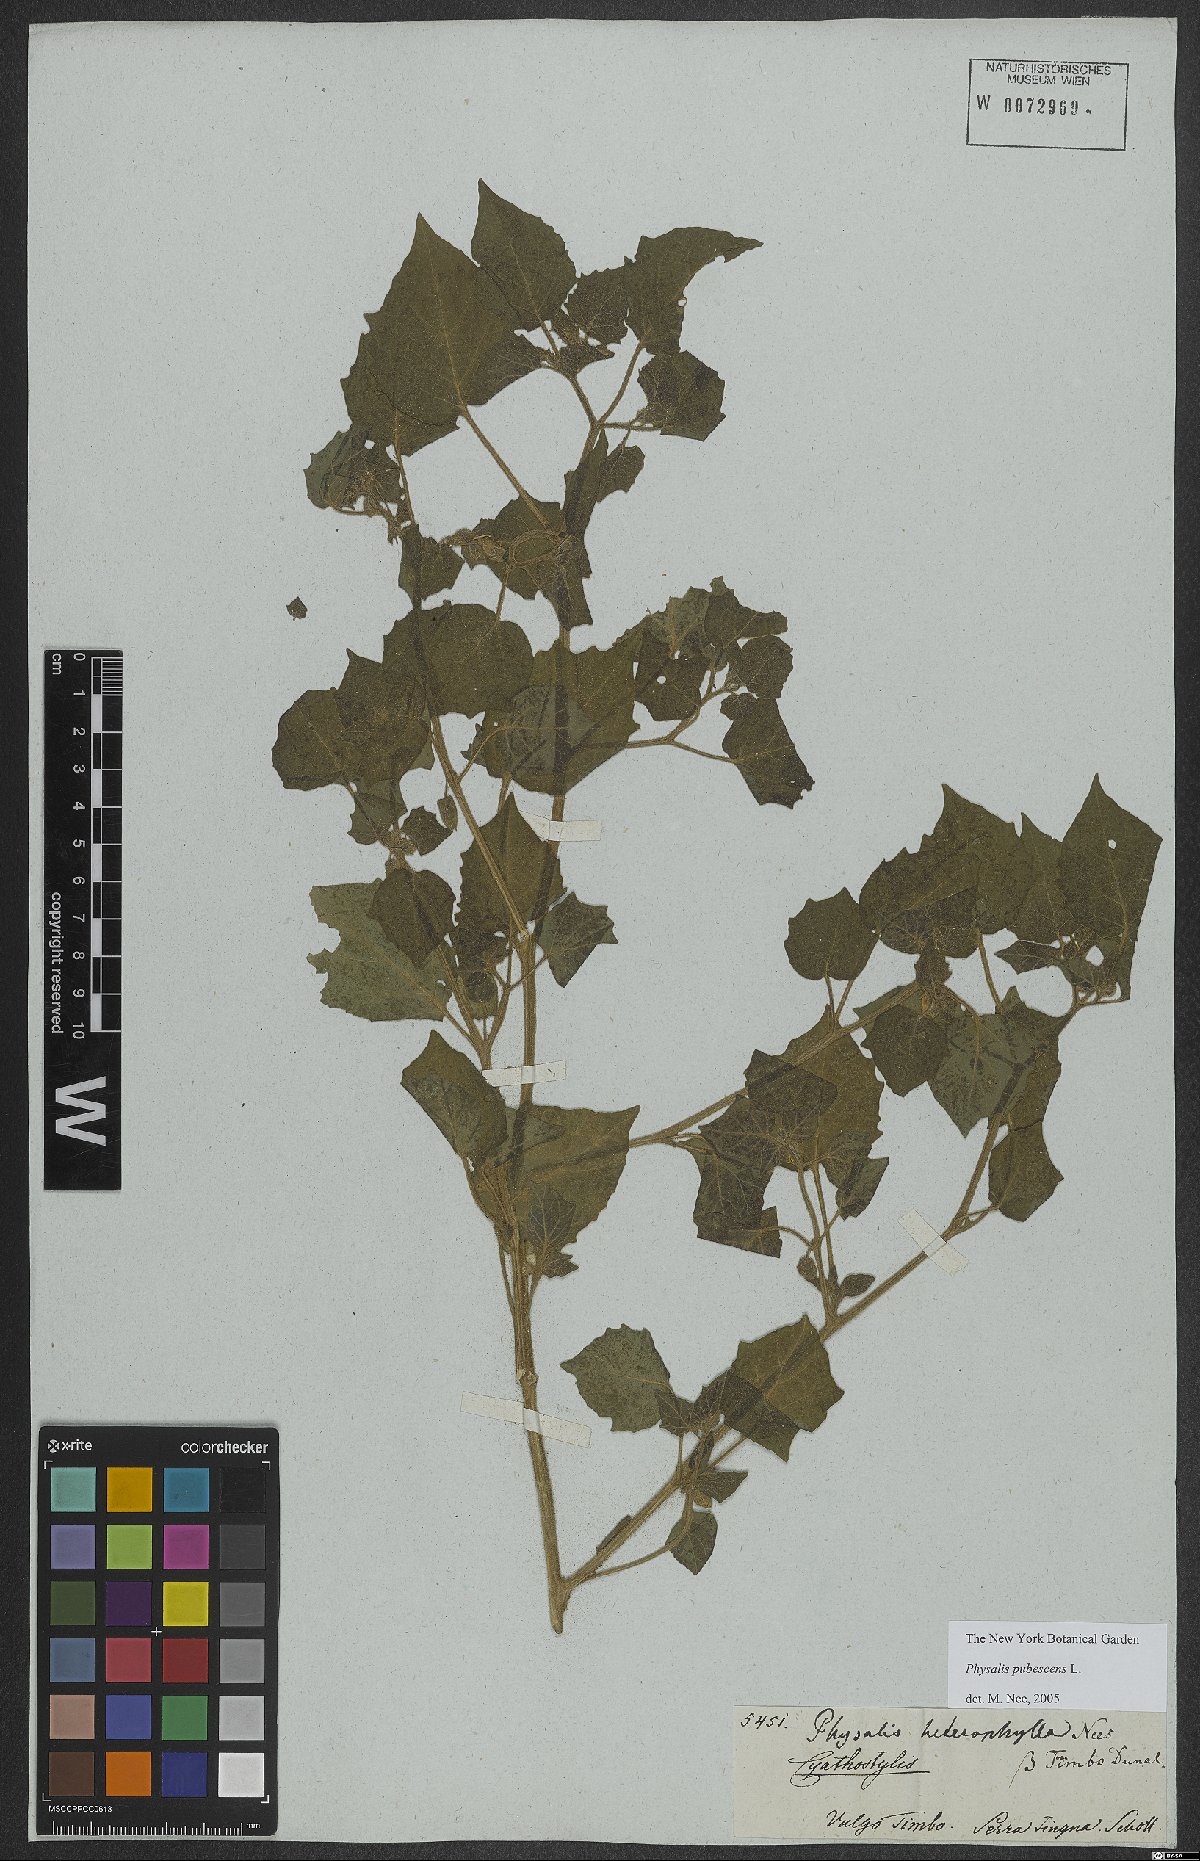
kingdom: Plantae
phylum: Tracheophyta
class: Magnoliopsida
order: Solanales
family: Solanaceae
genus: Physalis
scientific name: Physalis pubescens
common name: Downy ground-cherry
